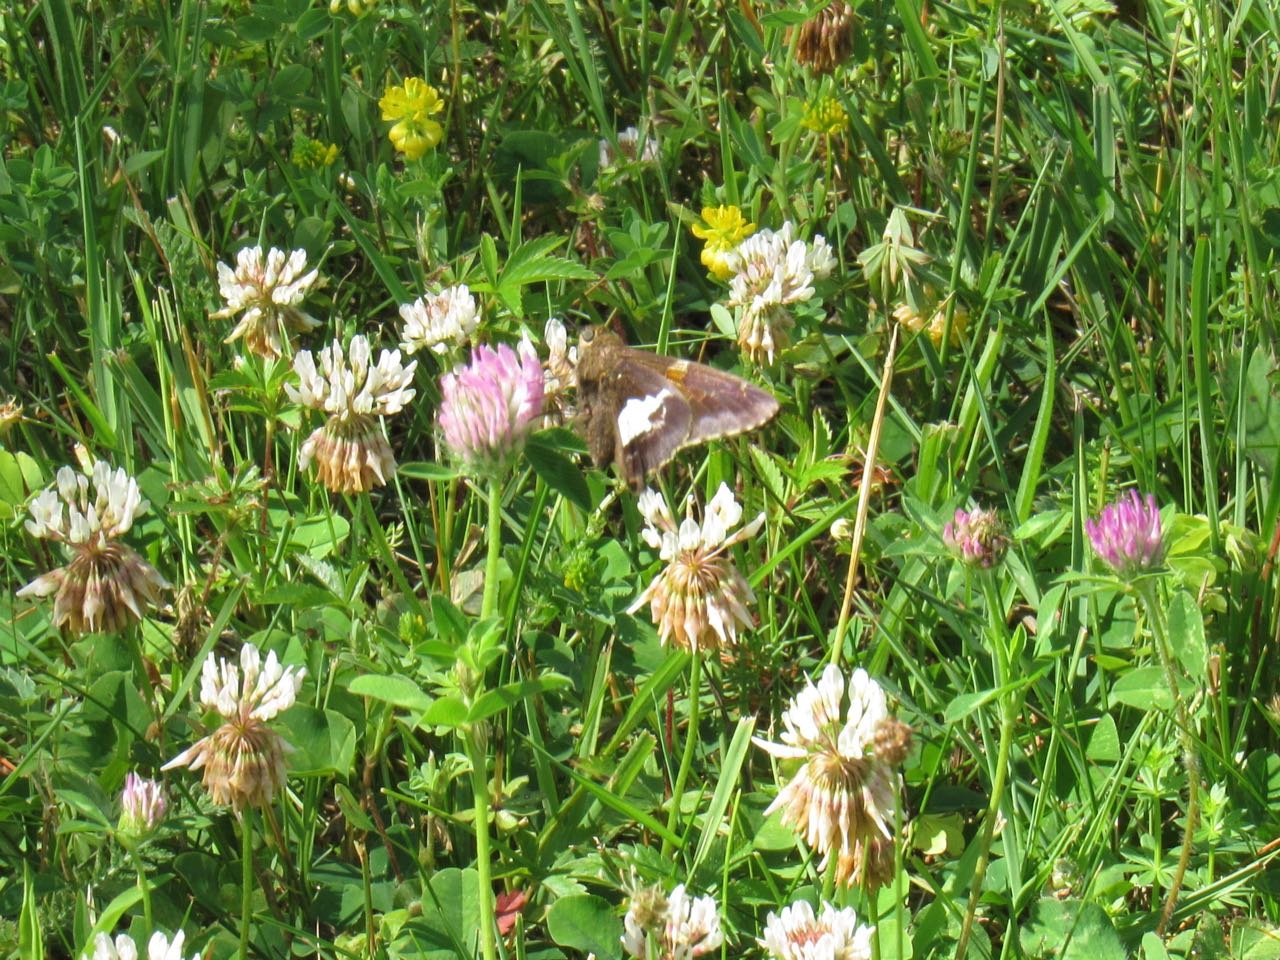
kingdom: Animalia
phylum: Arthropoda
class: Insecta
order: Lepidoptera
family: Hesperiidae
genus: Epargyreus
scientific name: Epargyreus clarus
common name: Silver-spotted Skipper
